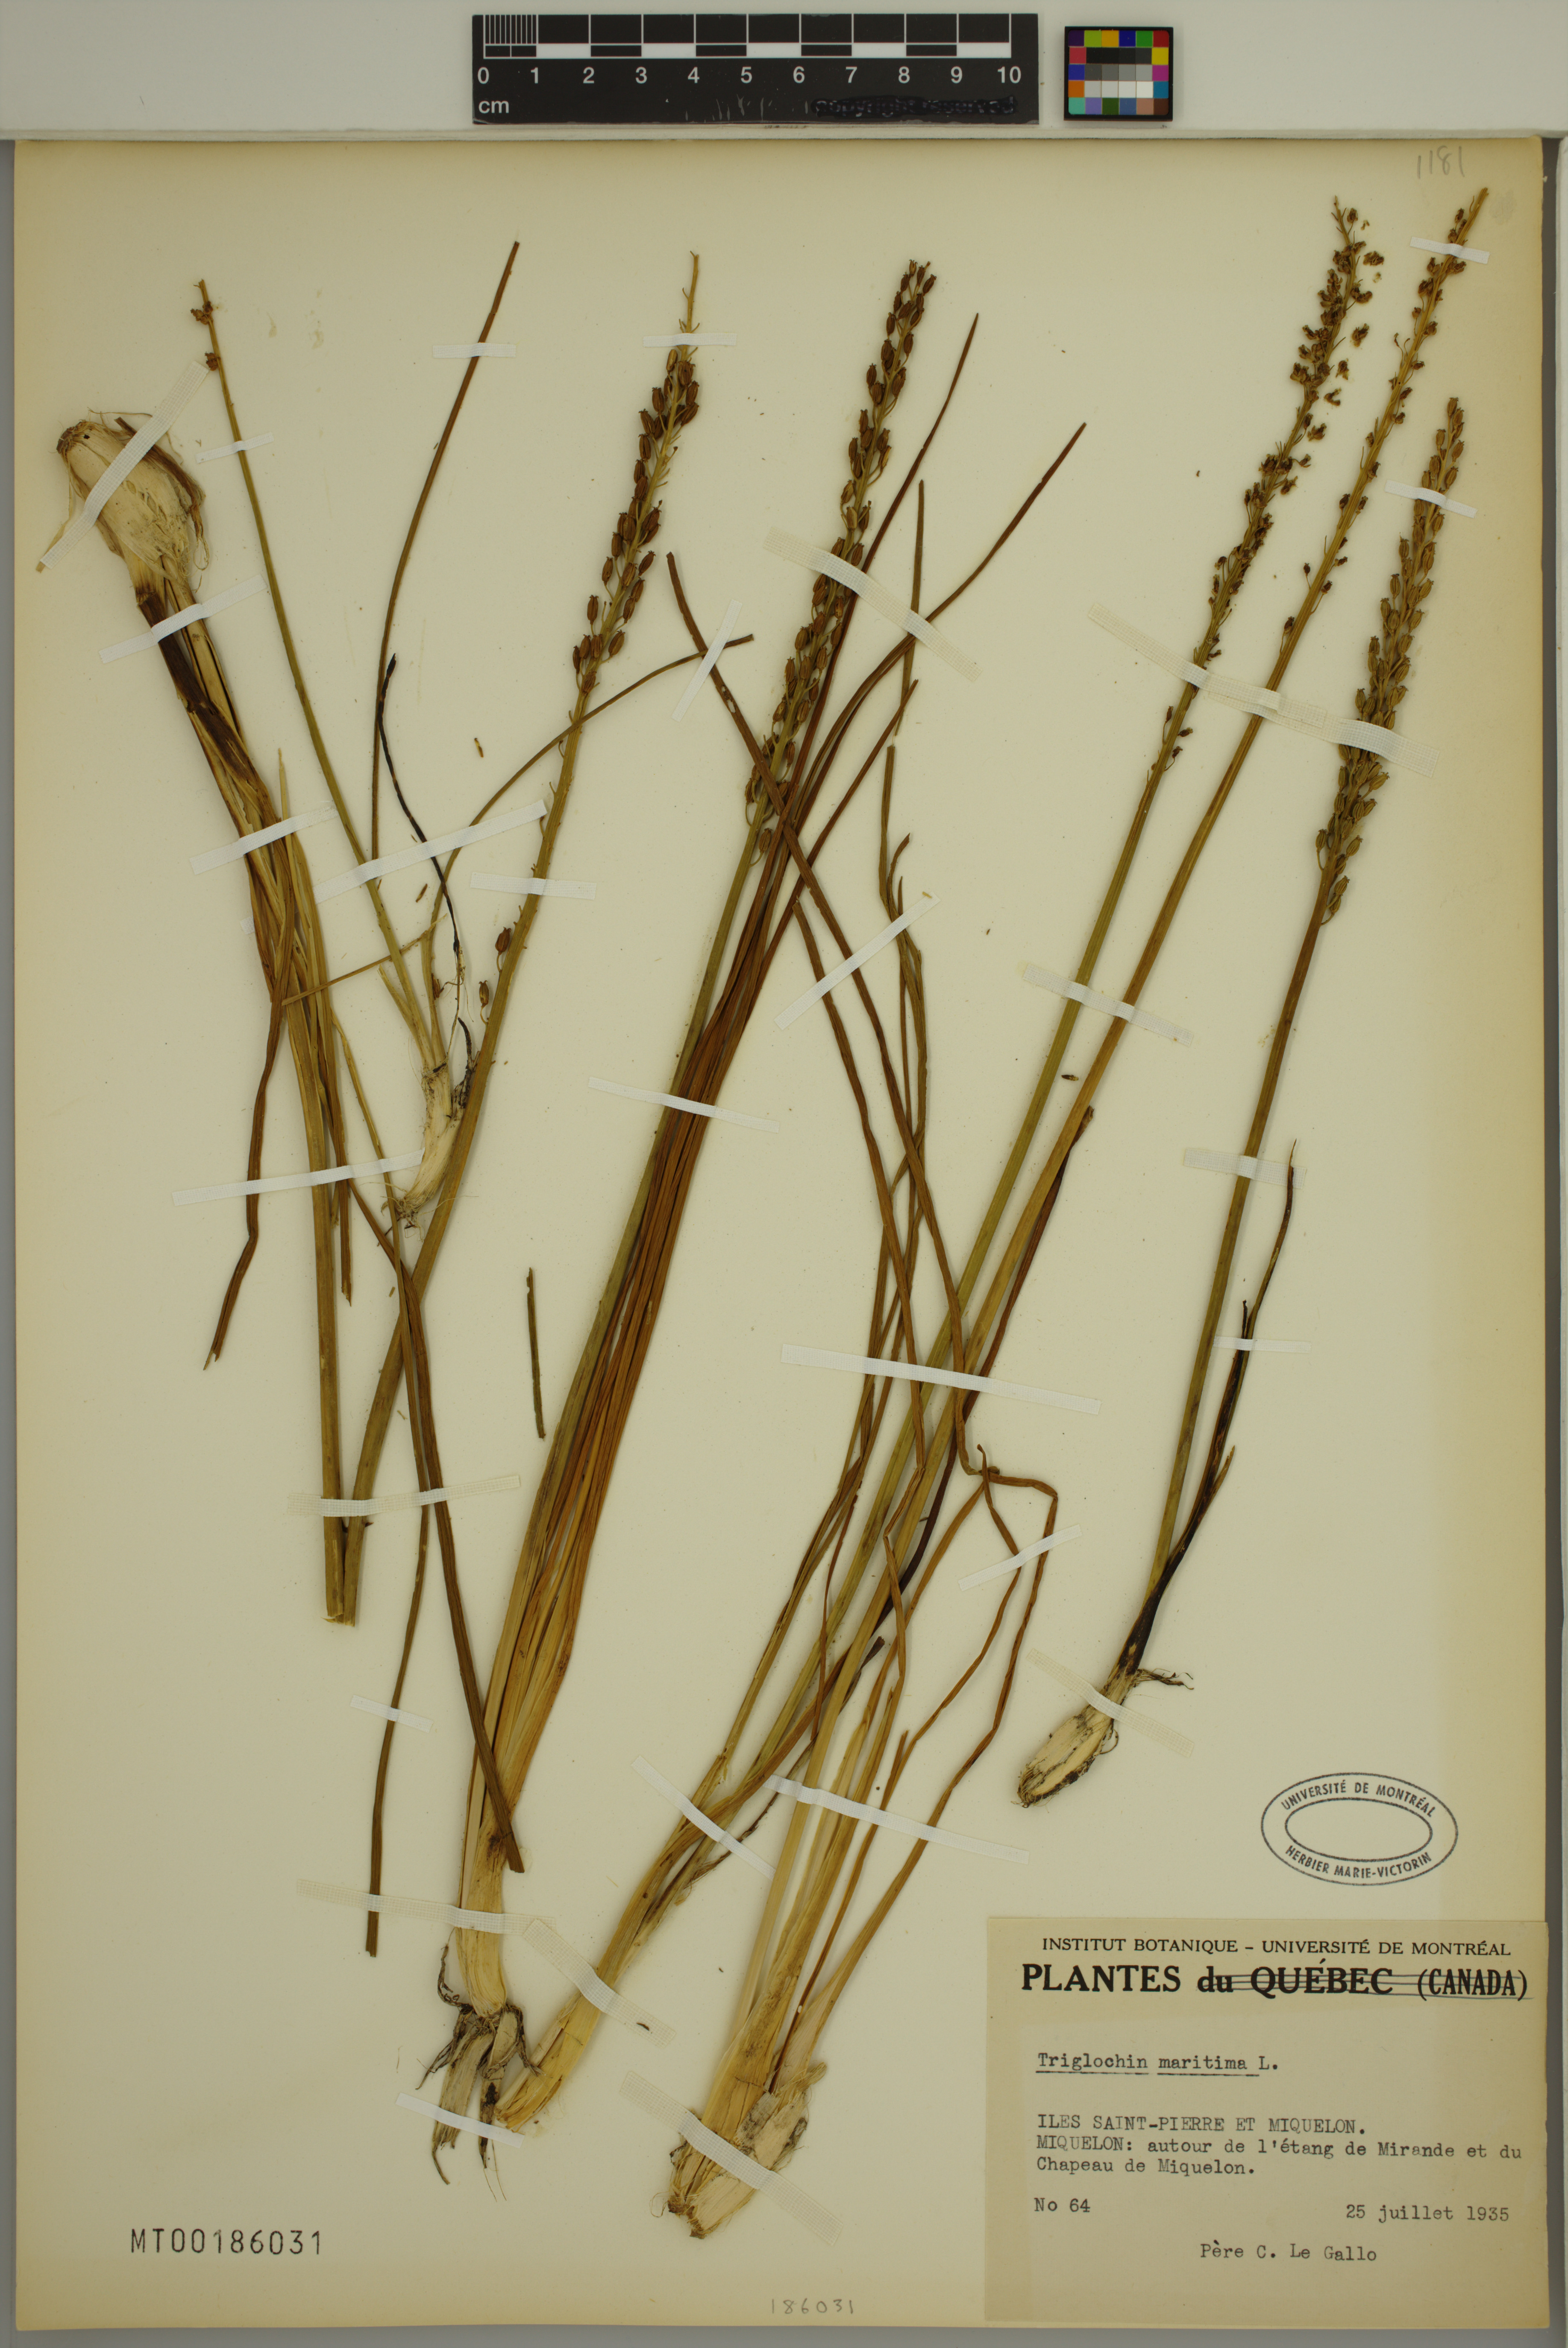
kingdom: Plantae
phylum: Tracheophyta
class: Liliopsida
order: Alismatales
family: Juncaginaceae
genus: Triglochin
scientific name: Triglochin maritima
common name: Sea arrowgrass
